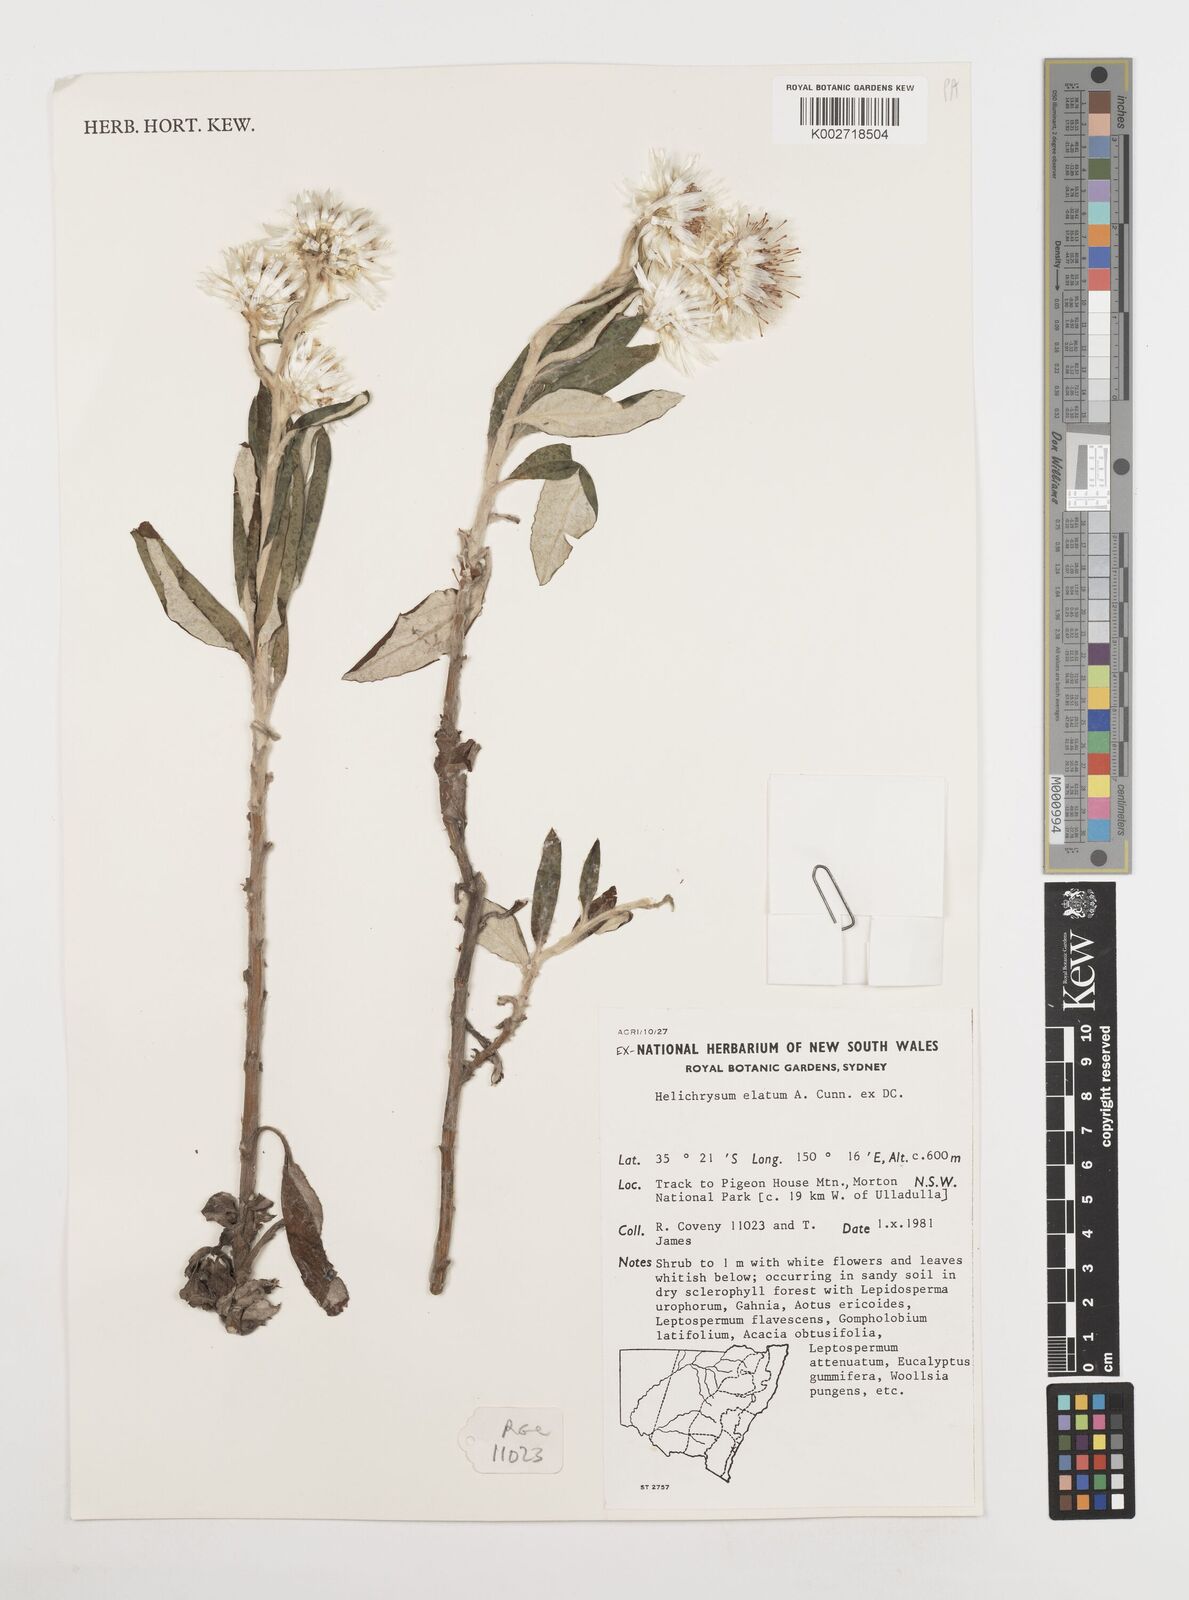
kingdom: Plantae
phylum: Tracheophyta
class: Magnoliopsida
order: Asterales
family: Asteraceae
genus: Leucozoma
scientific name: Leucozoma elatum
